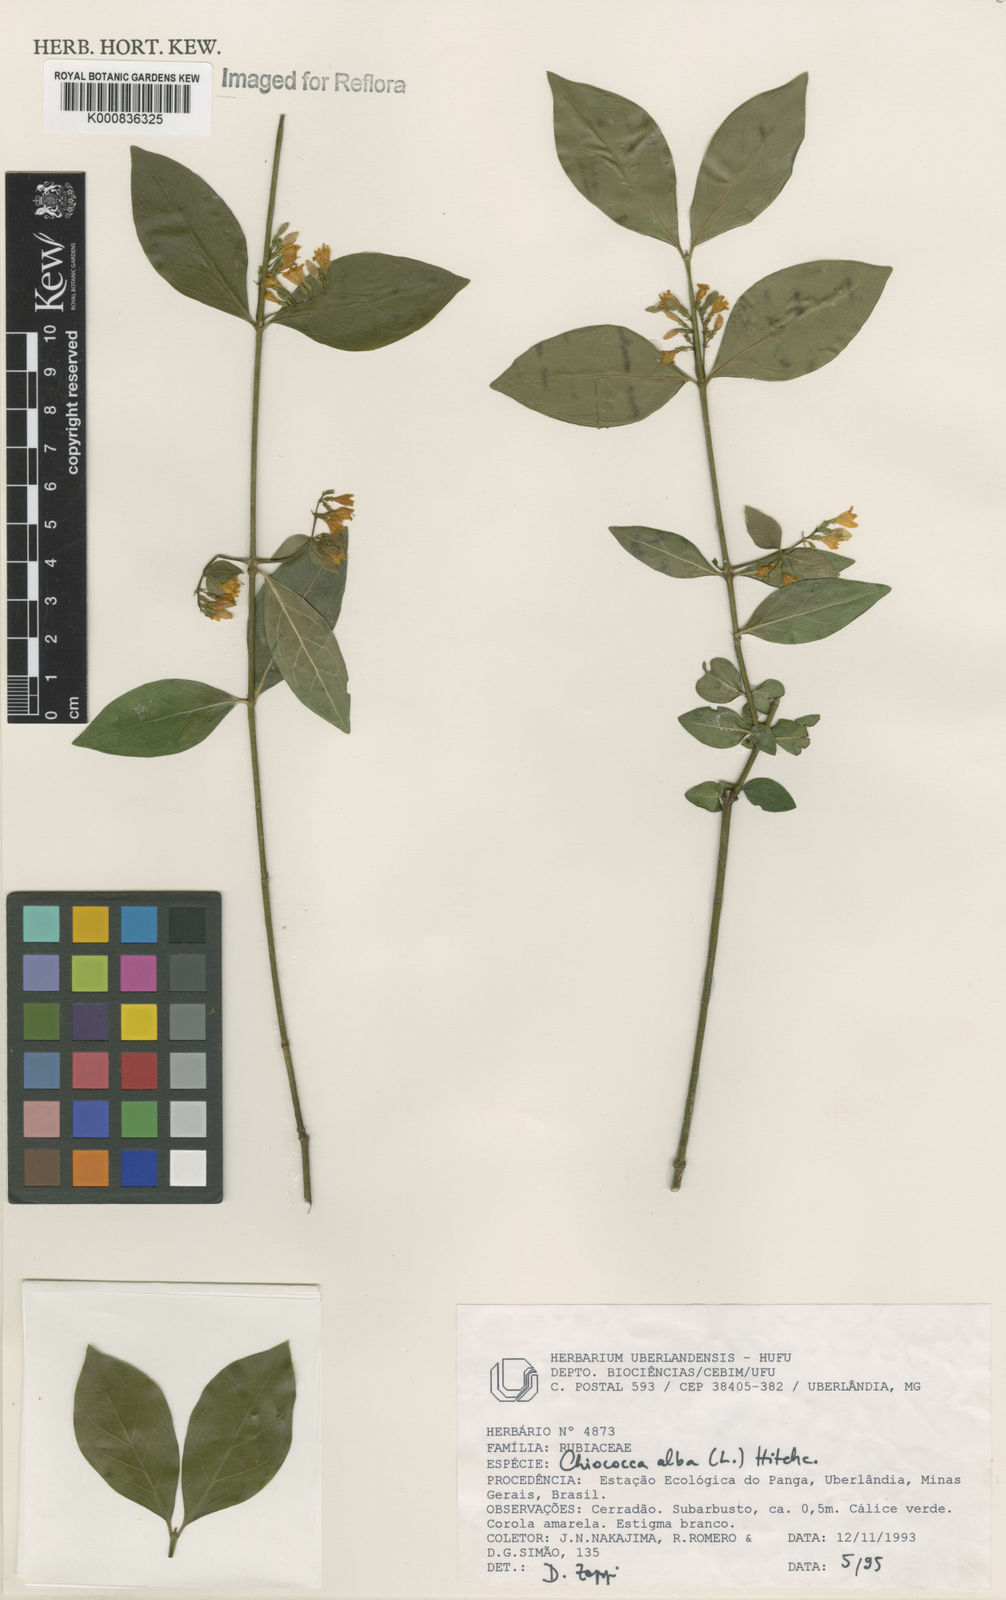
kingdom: Plantae
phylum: Tracheophyta
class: Magnoliopsida
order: Gentianales
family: Rubiaceae
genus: Chiococca
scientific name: Chiococca alba
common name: Snowberry
